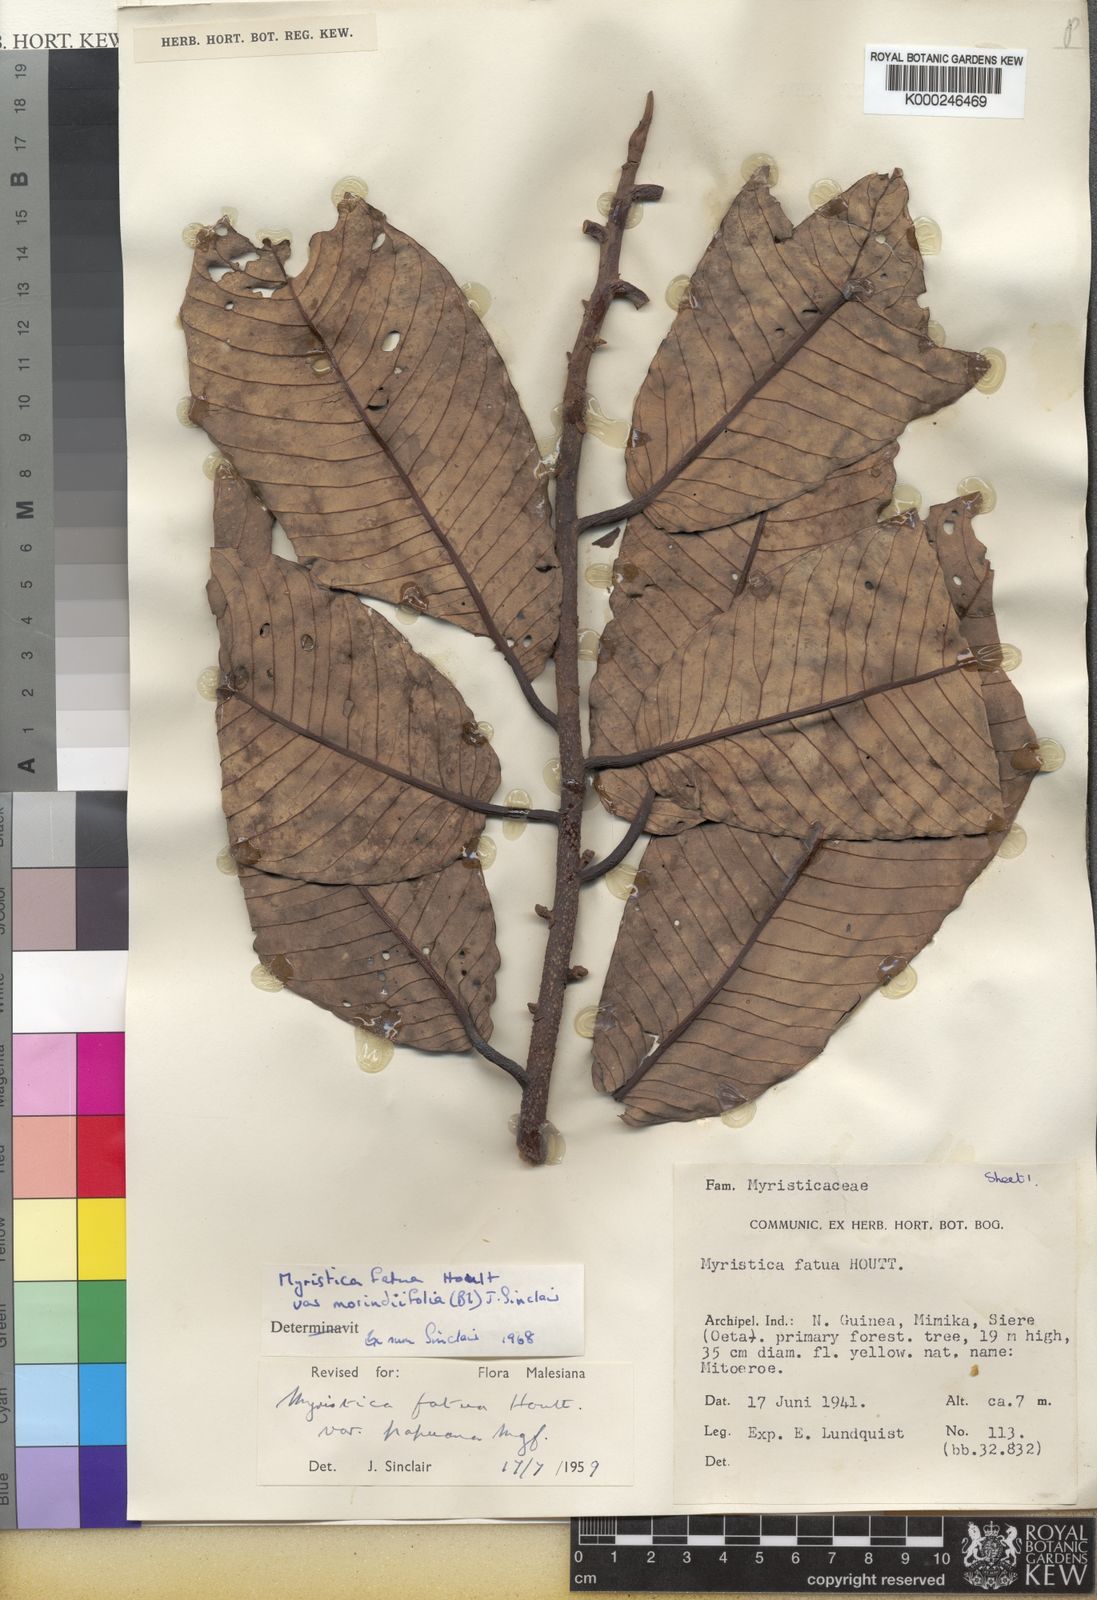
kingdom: Plantae
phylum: Tracheophyta
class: Magnoliopsida
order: Magnoliales
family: Myristicaceae
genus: Myristica
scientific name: Myristica fatua
